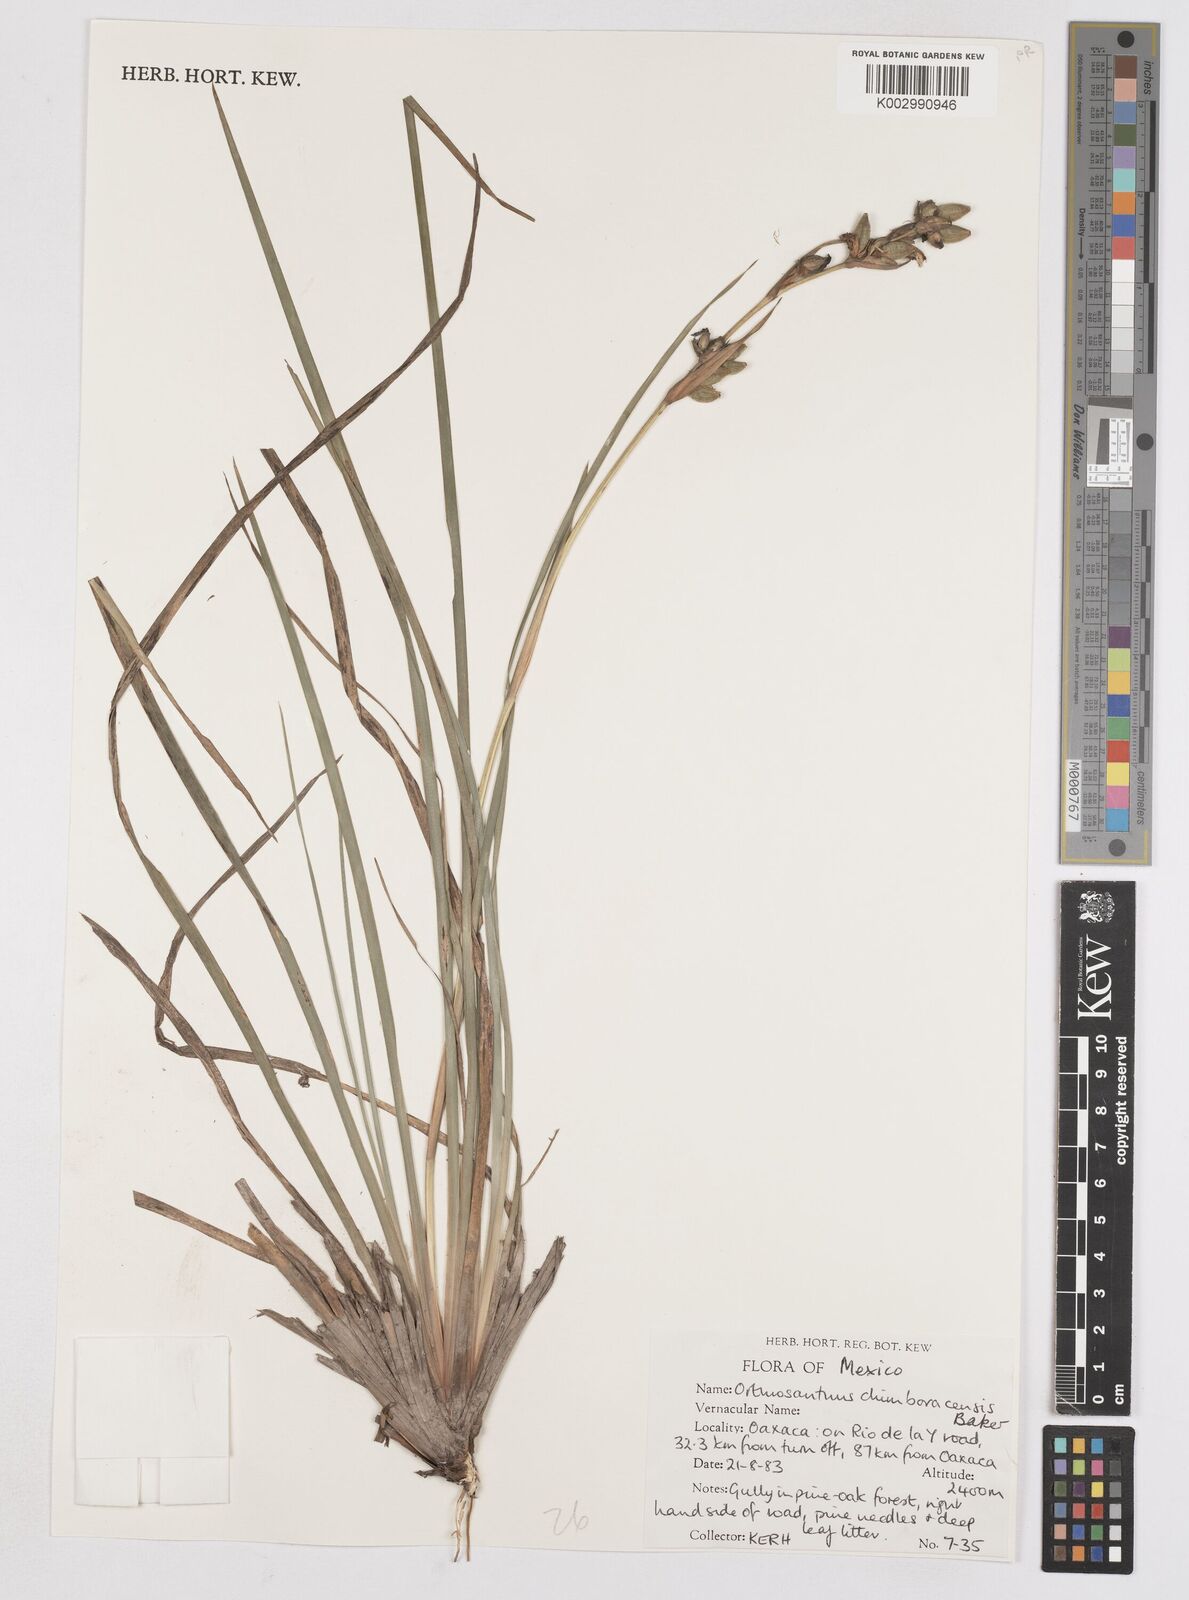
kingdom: Plantae
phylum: Tracheophyta
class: Liliopsida
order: Asparagales
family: Iridaceae
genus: Orthrosanthus
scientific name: Orthrosanthus chimboracensis
